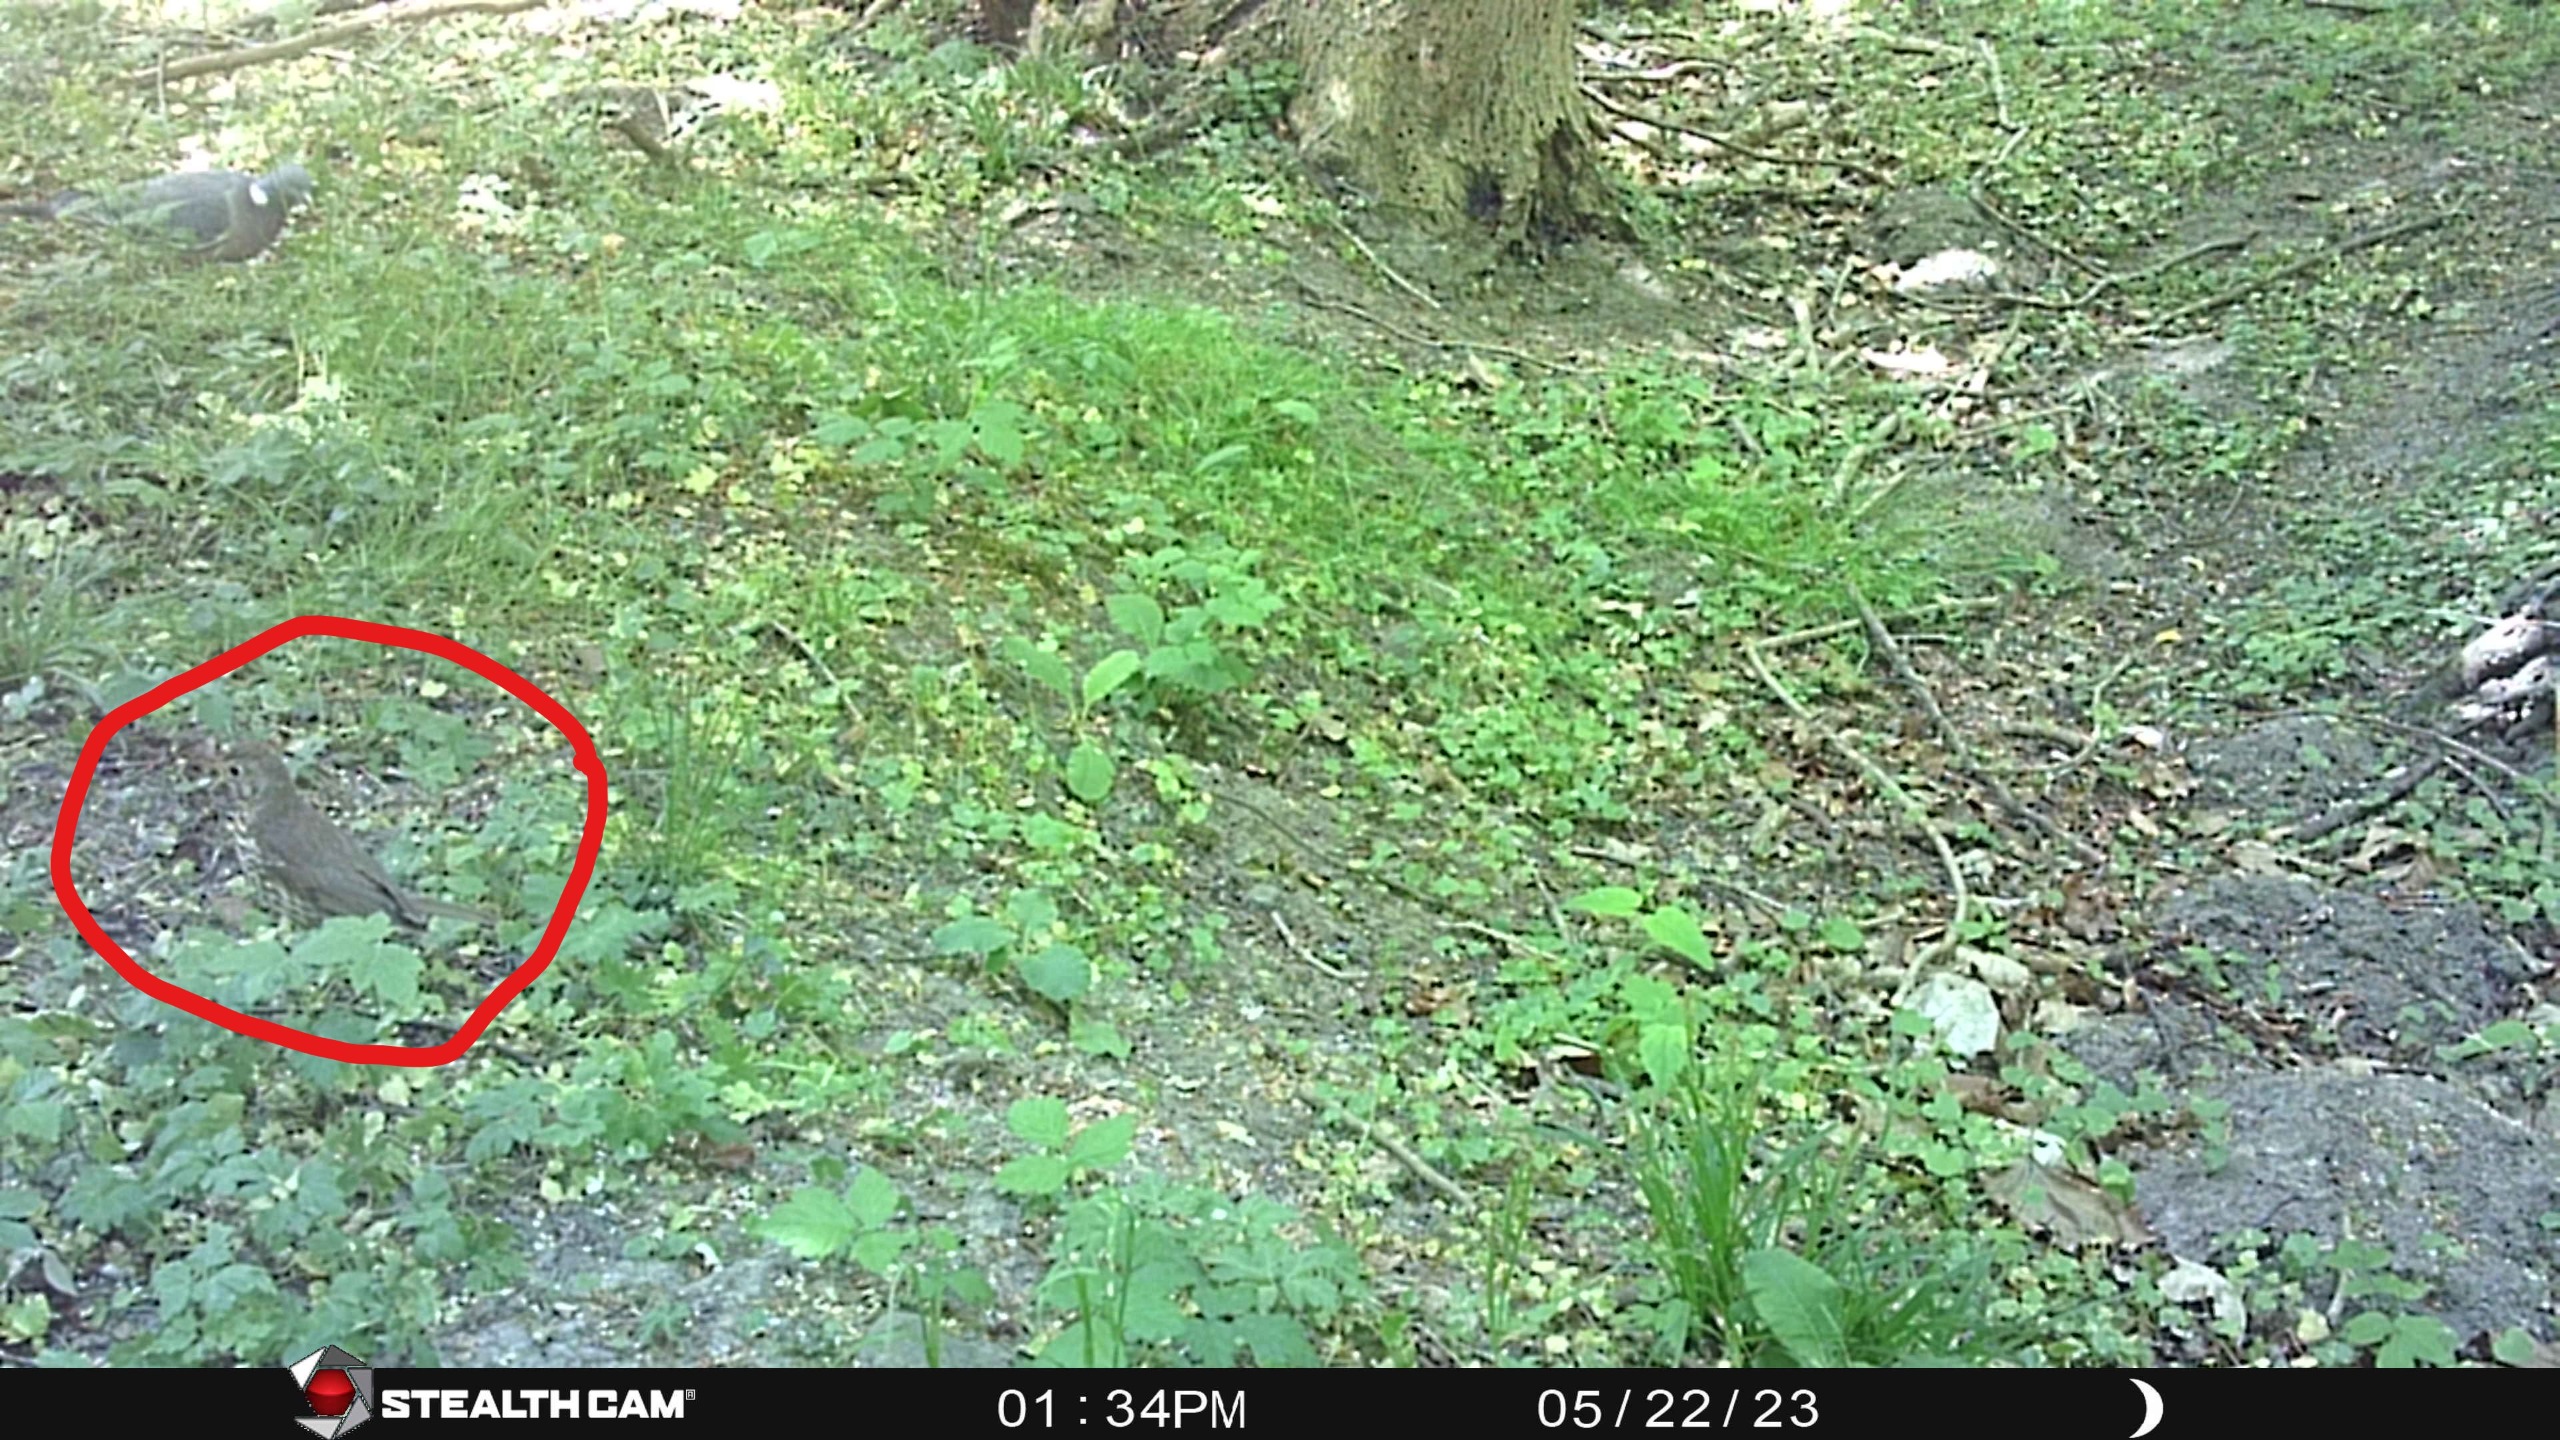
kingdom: Animalia
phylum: Chordata
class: Aves
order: Passeriformes
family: Turdidae
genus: Turdus
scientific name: Turdus philomelos
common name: Sangdrossel
